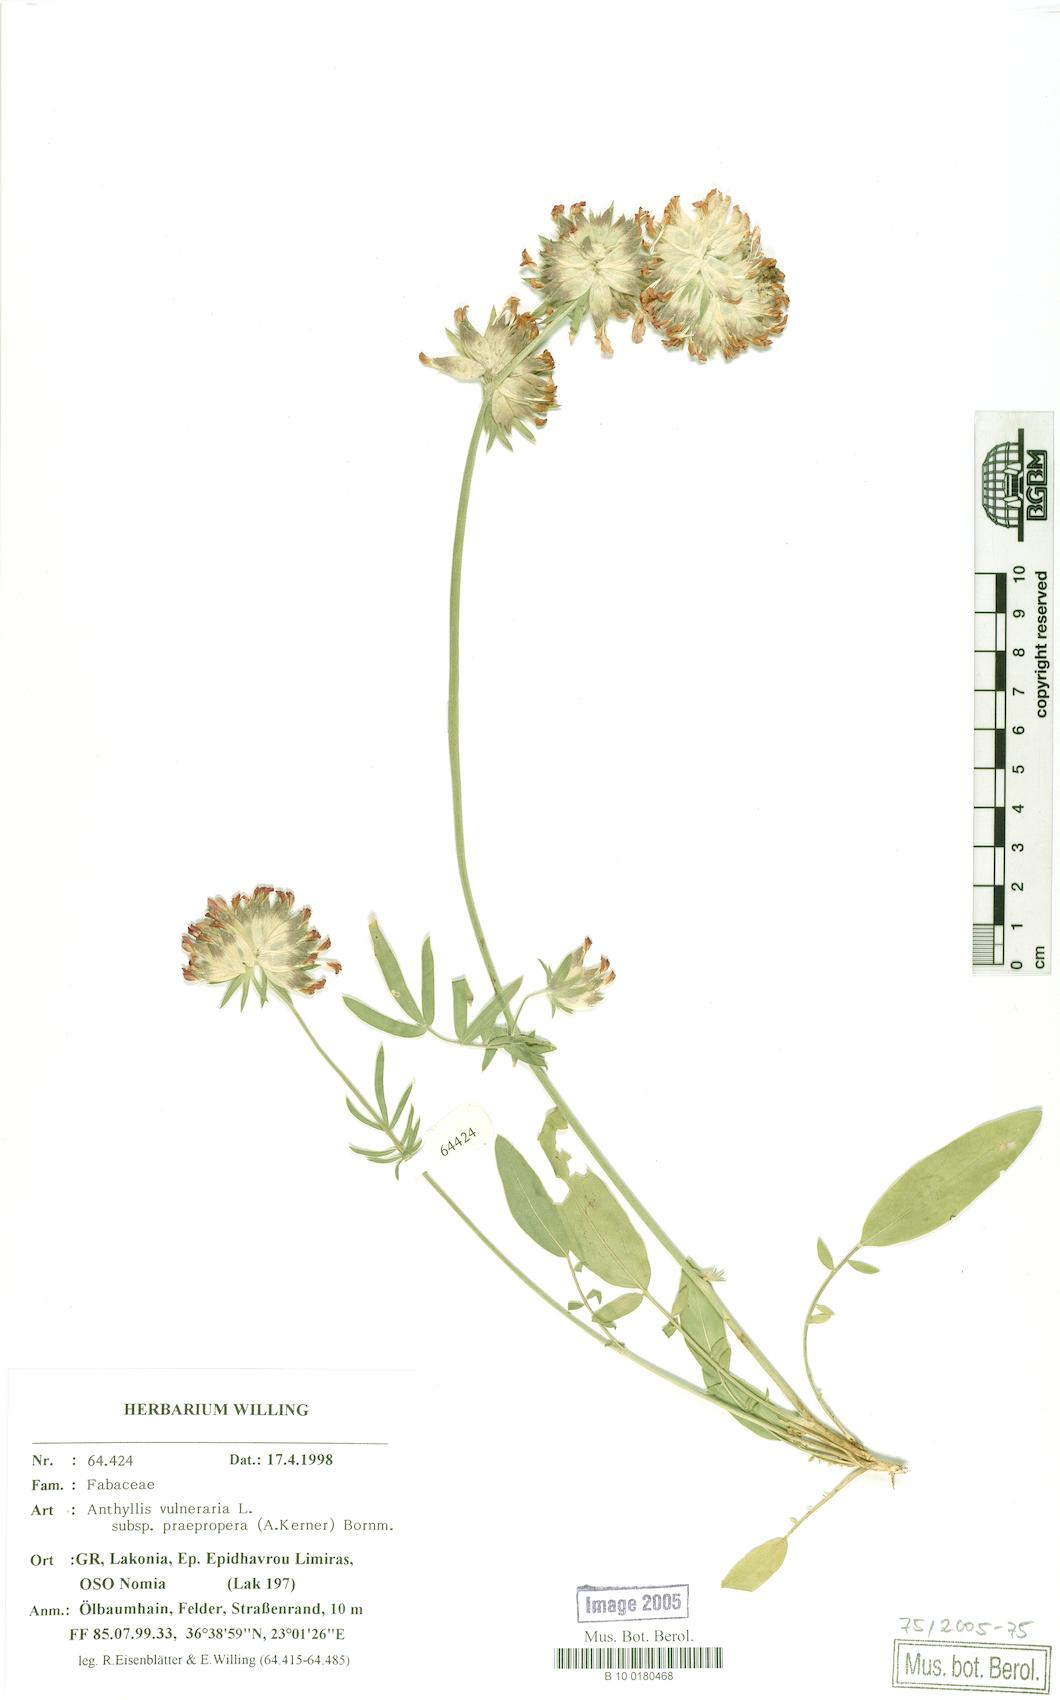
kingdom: Plantae
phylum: Tracheophyta
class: Magnoliopsida
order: Fabales
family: Fabaceae
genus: Anthyllis
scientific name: Anthyllis vulneraria
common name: Kidney vetch
